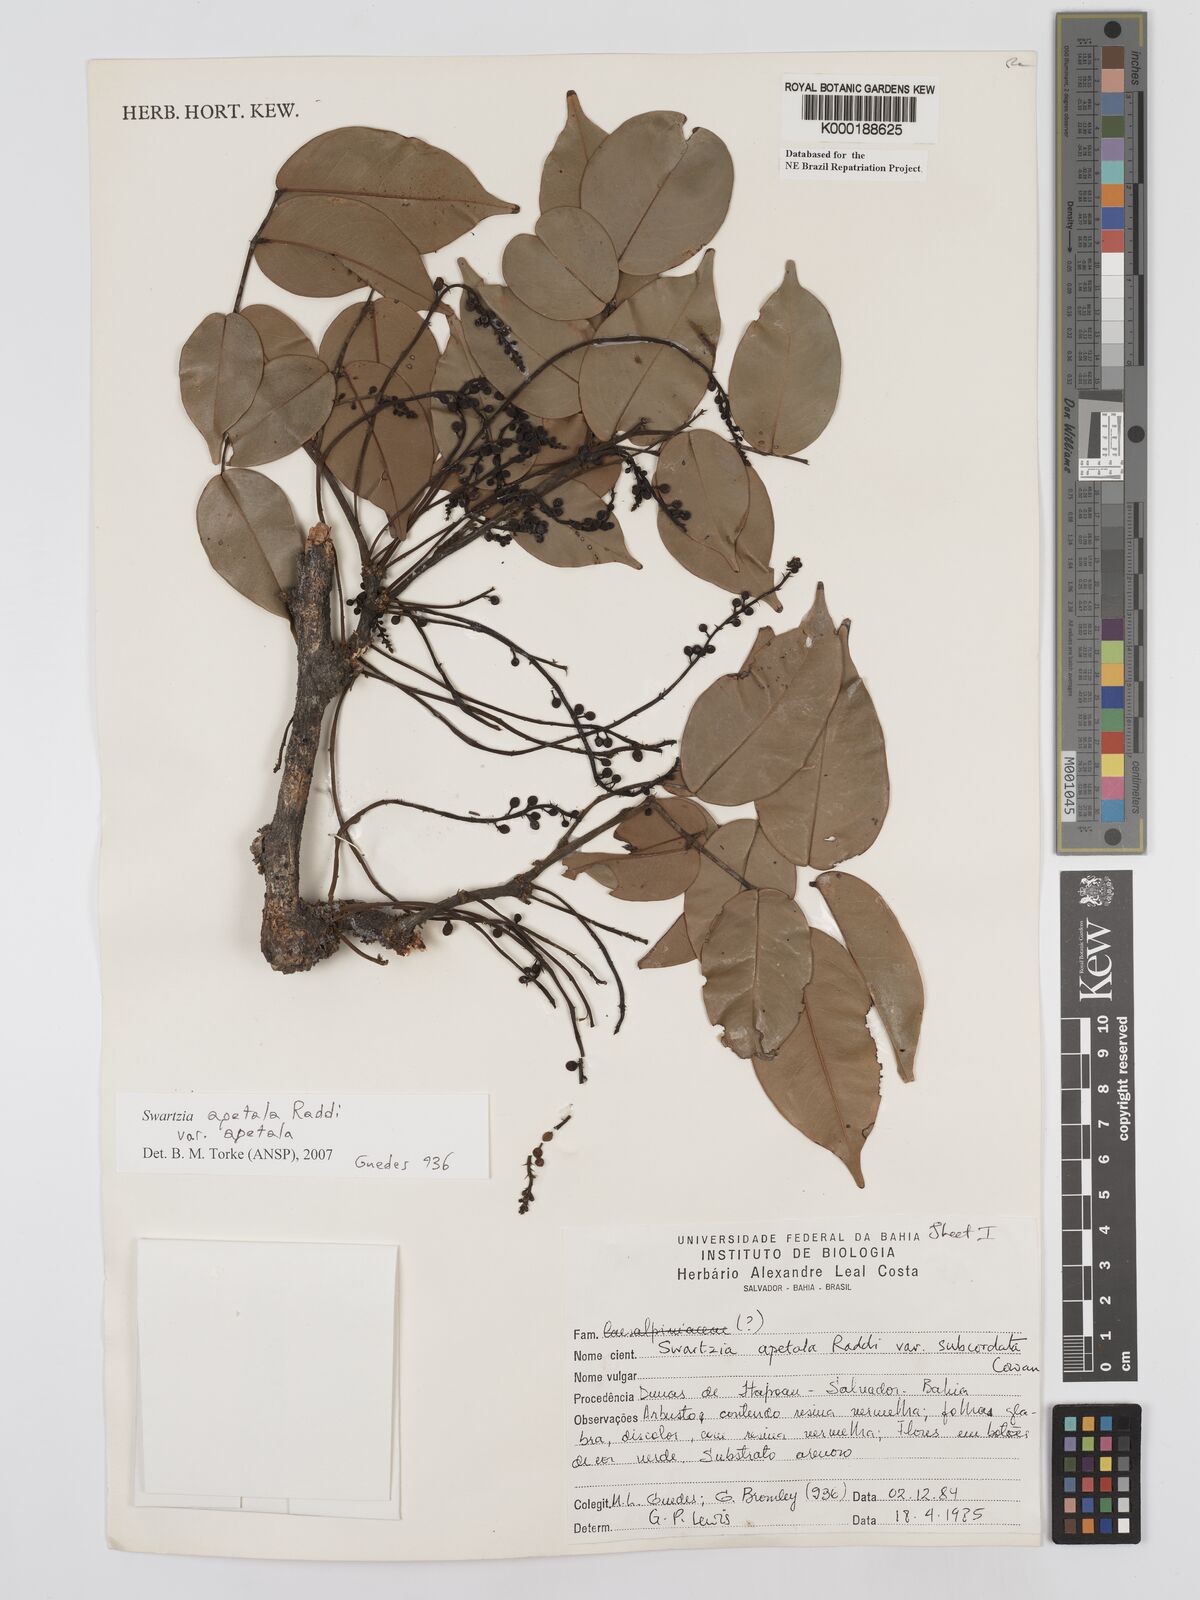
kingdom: Plantae
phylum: Tracheophyta
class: Magnoliopsida
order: Fabales
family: Fabaceae
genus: Swartzia
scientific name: Swartzia apetala
